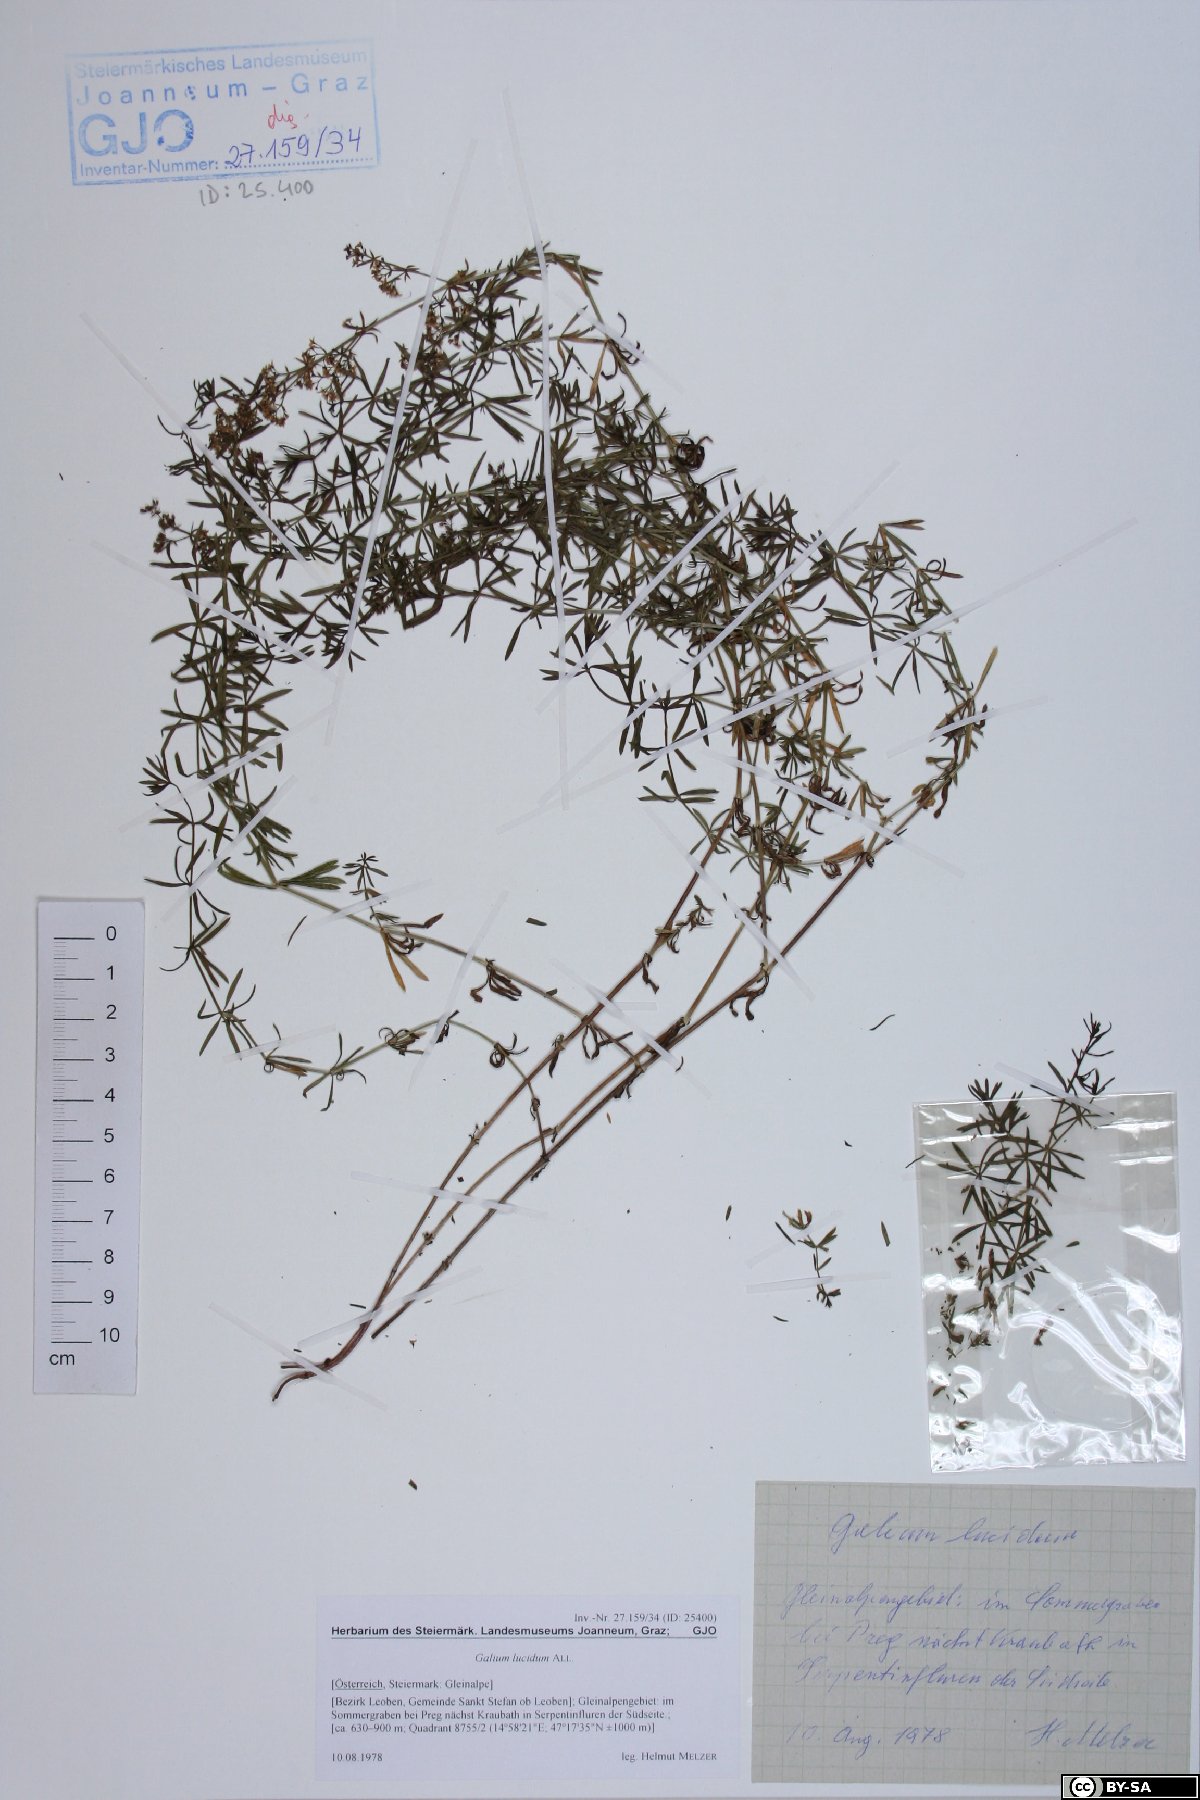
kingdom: Plantae
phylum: Tracheophyta
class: Magnoliopsida
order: Gentianales
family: Rubiaceae
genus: Galium
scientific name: Galium lucidum
